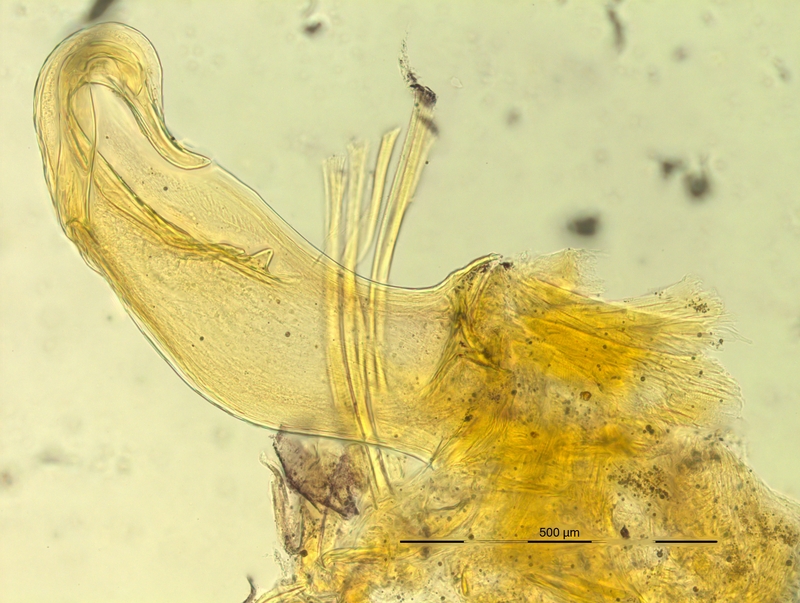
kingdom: Animalia
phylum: Arthropoda
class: Diplopoda
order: Chordeumatida
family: Craspedosomatidae
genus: Bergamosoma
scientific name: Bergamosoma bergomatium
